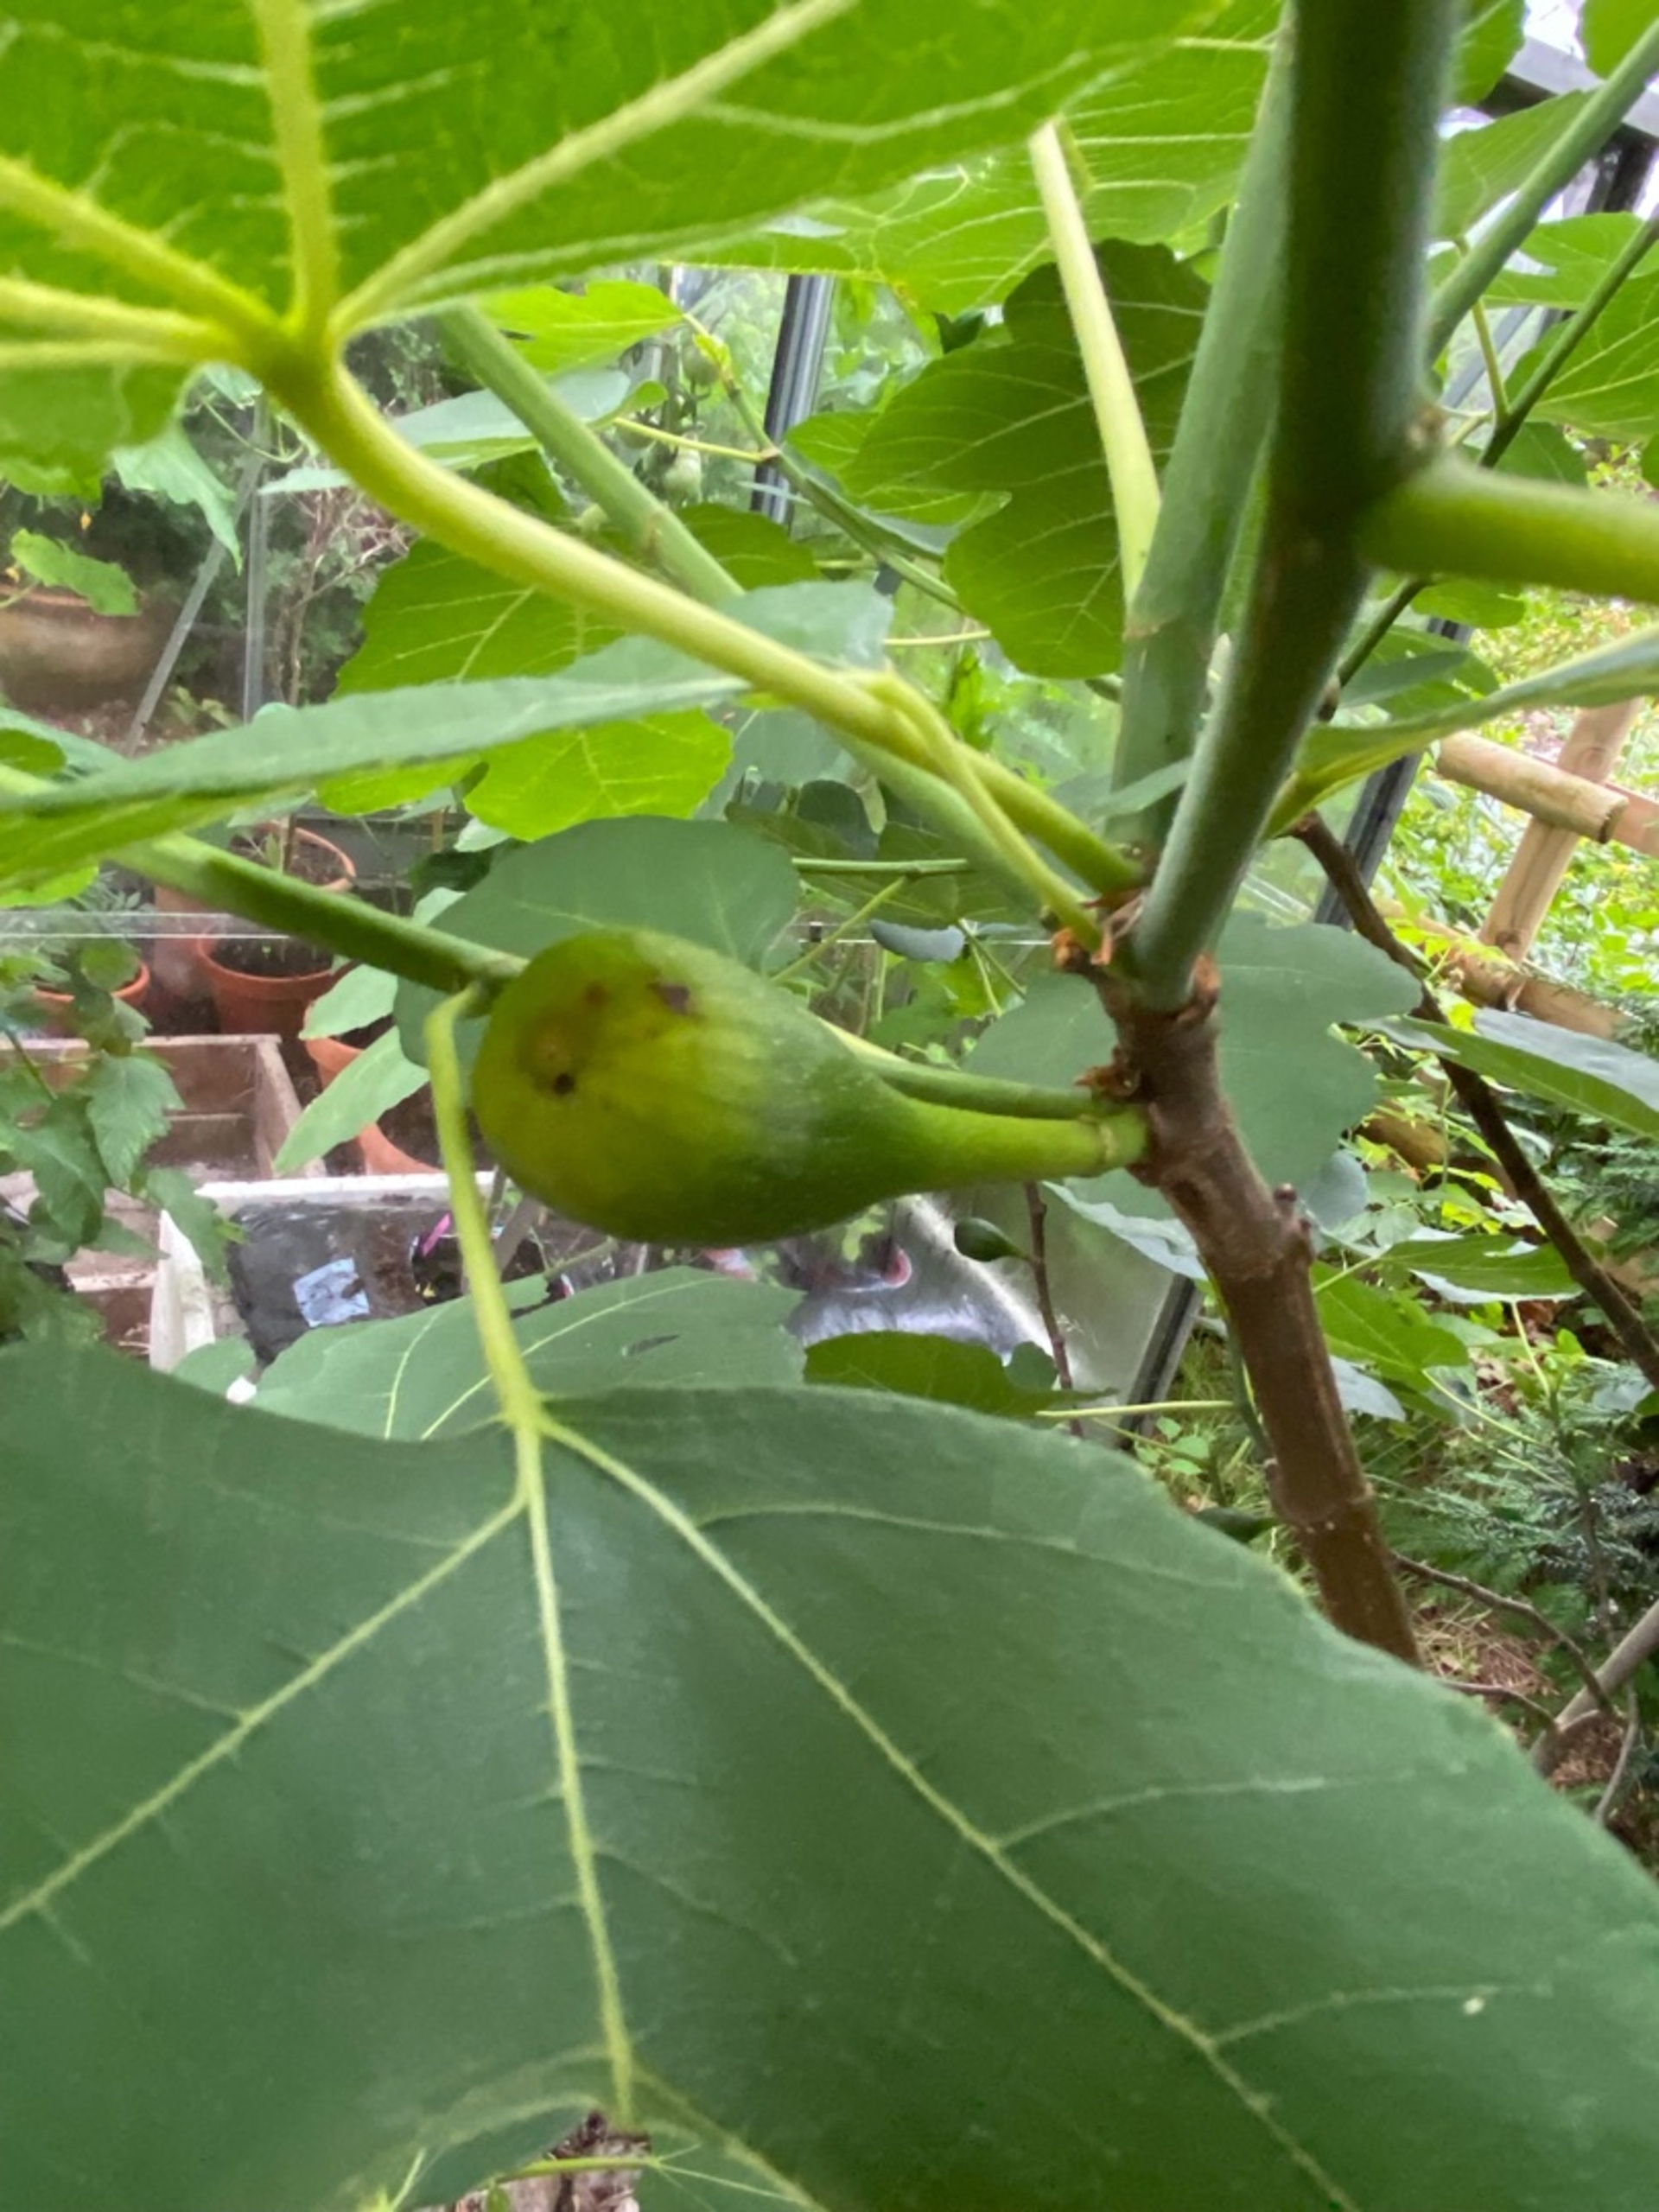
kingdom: Plantae
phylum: Tracheophyta
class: Magnoliopsida
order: Rosales
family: Moraceae
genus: Ficus
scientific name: Ficus carica
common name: Figen
